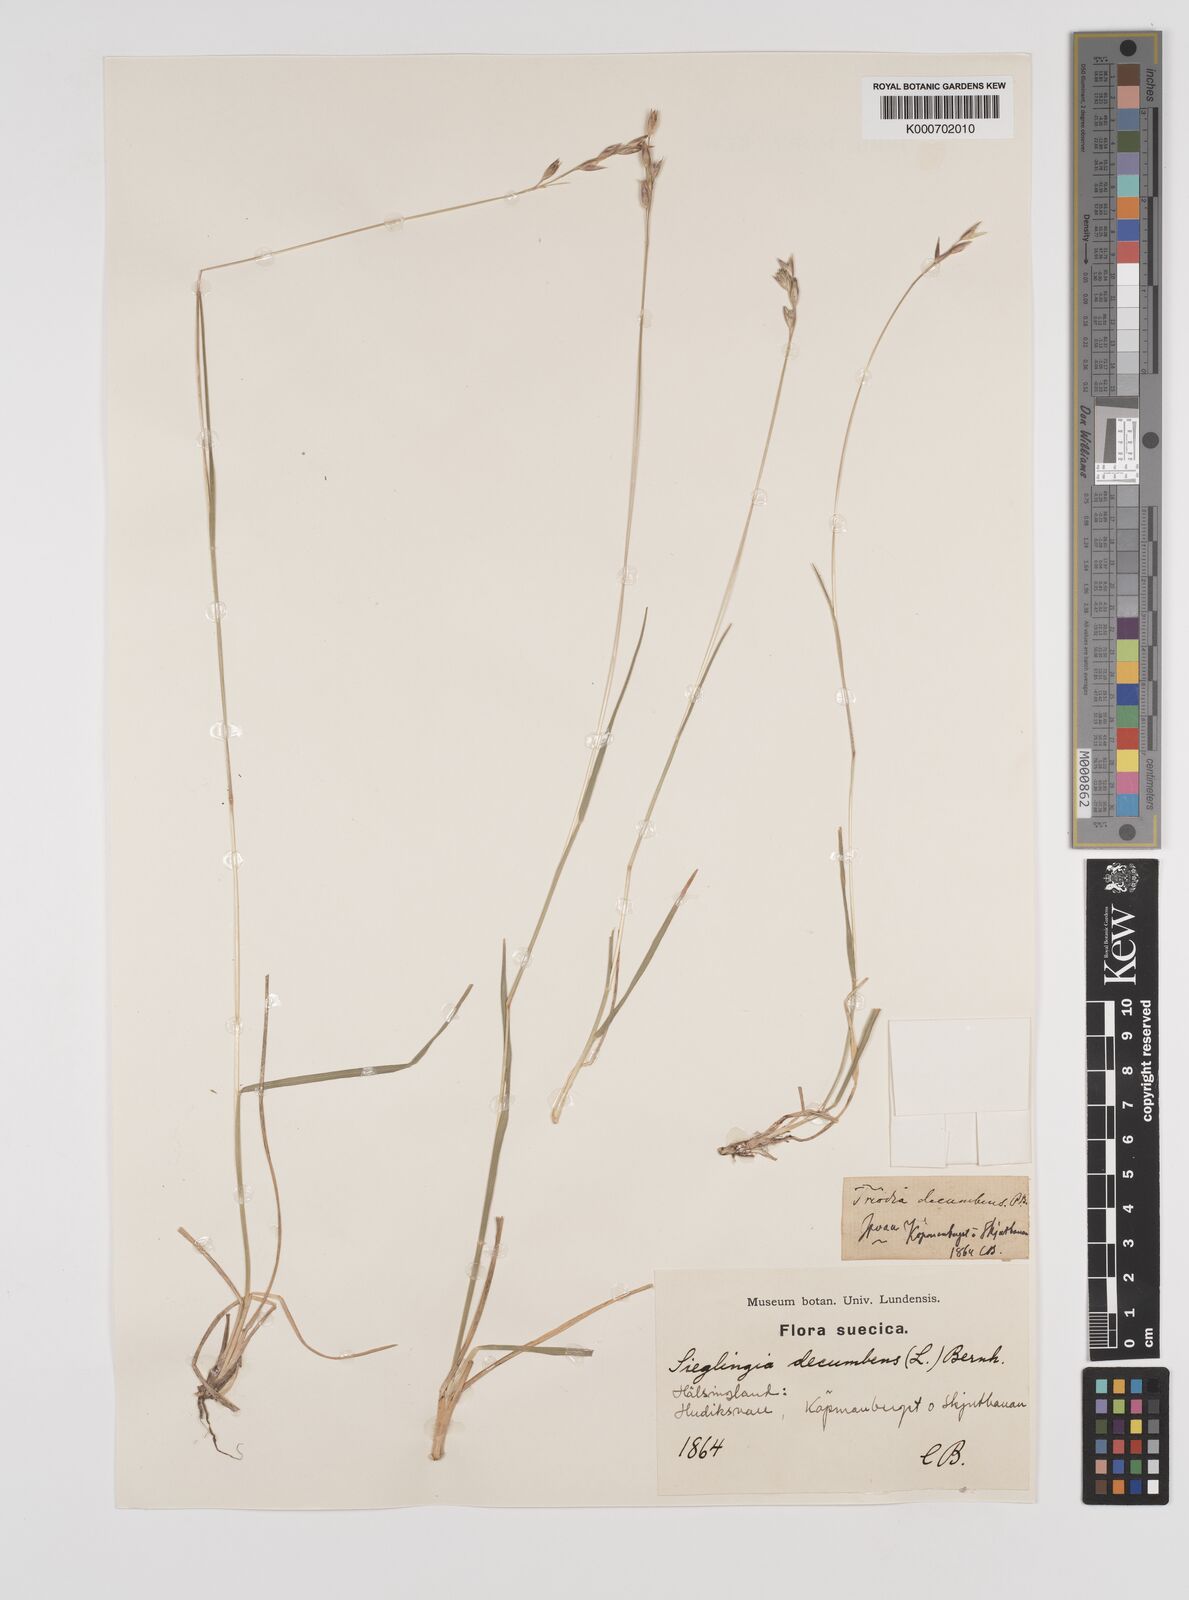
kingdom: Plantae
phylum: Tracheophyta
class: Liliopsida
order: Poales
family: Poaceae
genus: Danthonia
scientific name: Danthonia decumbens
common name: Common heathgrass
